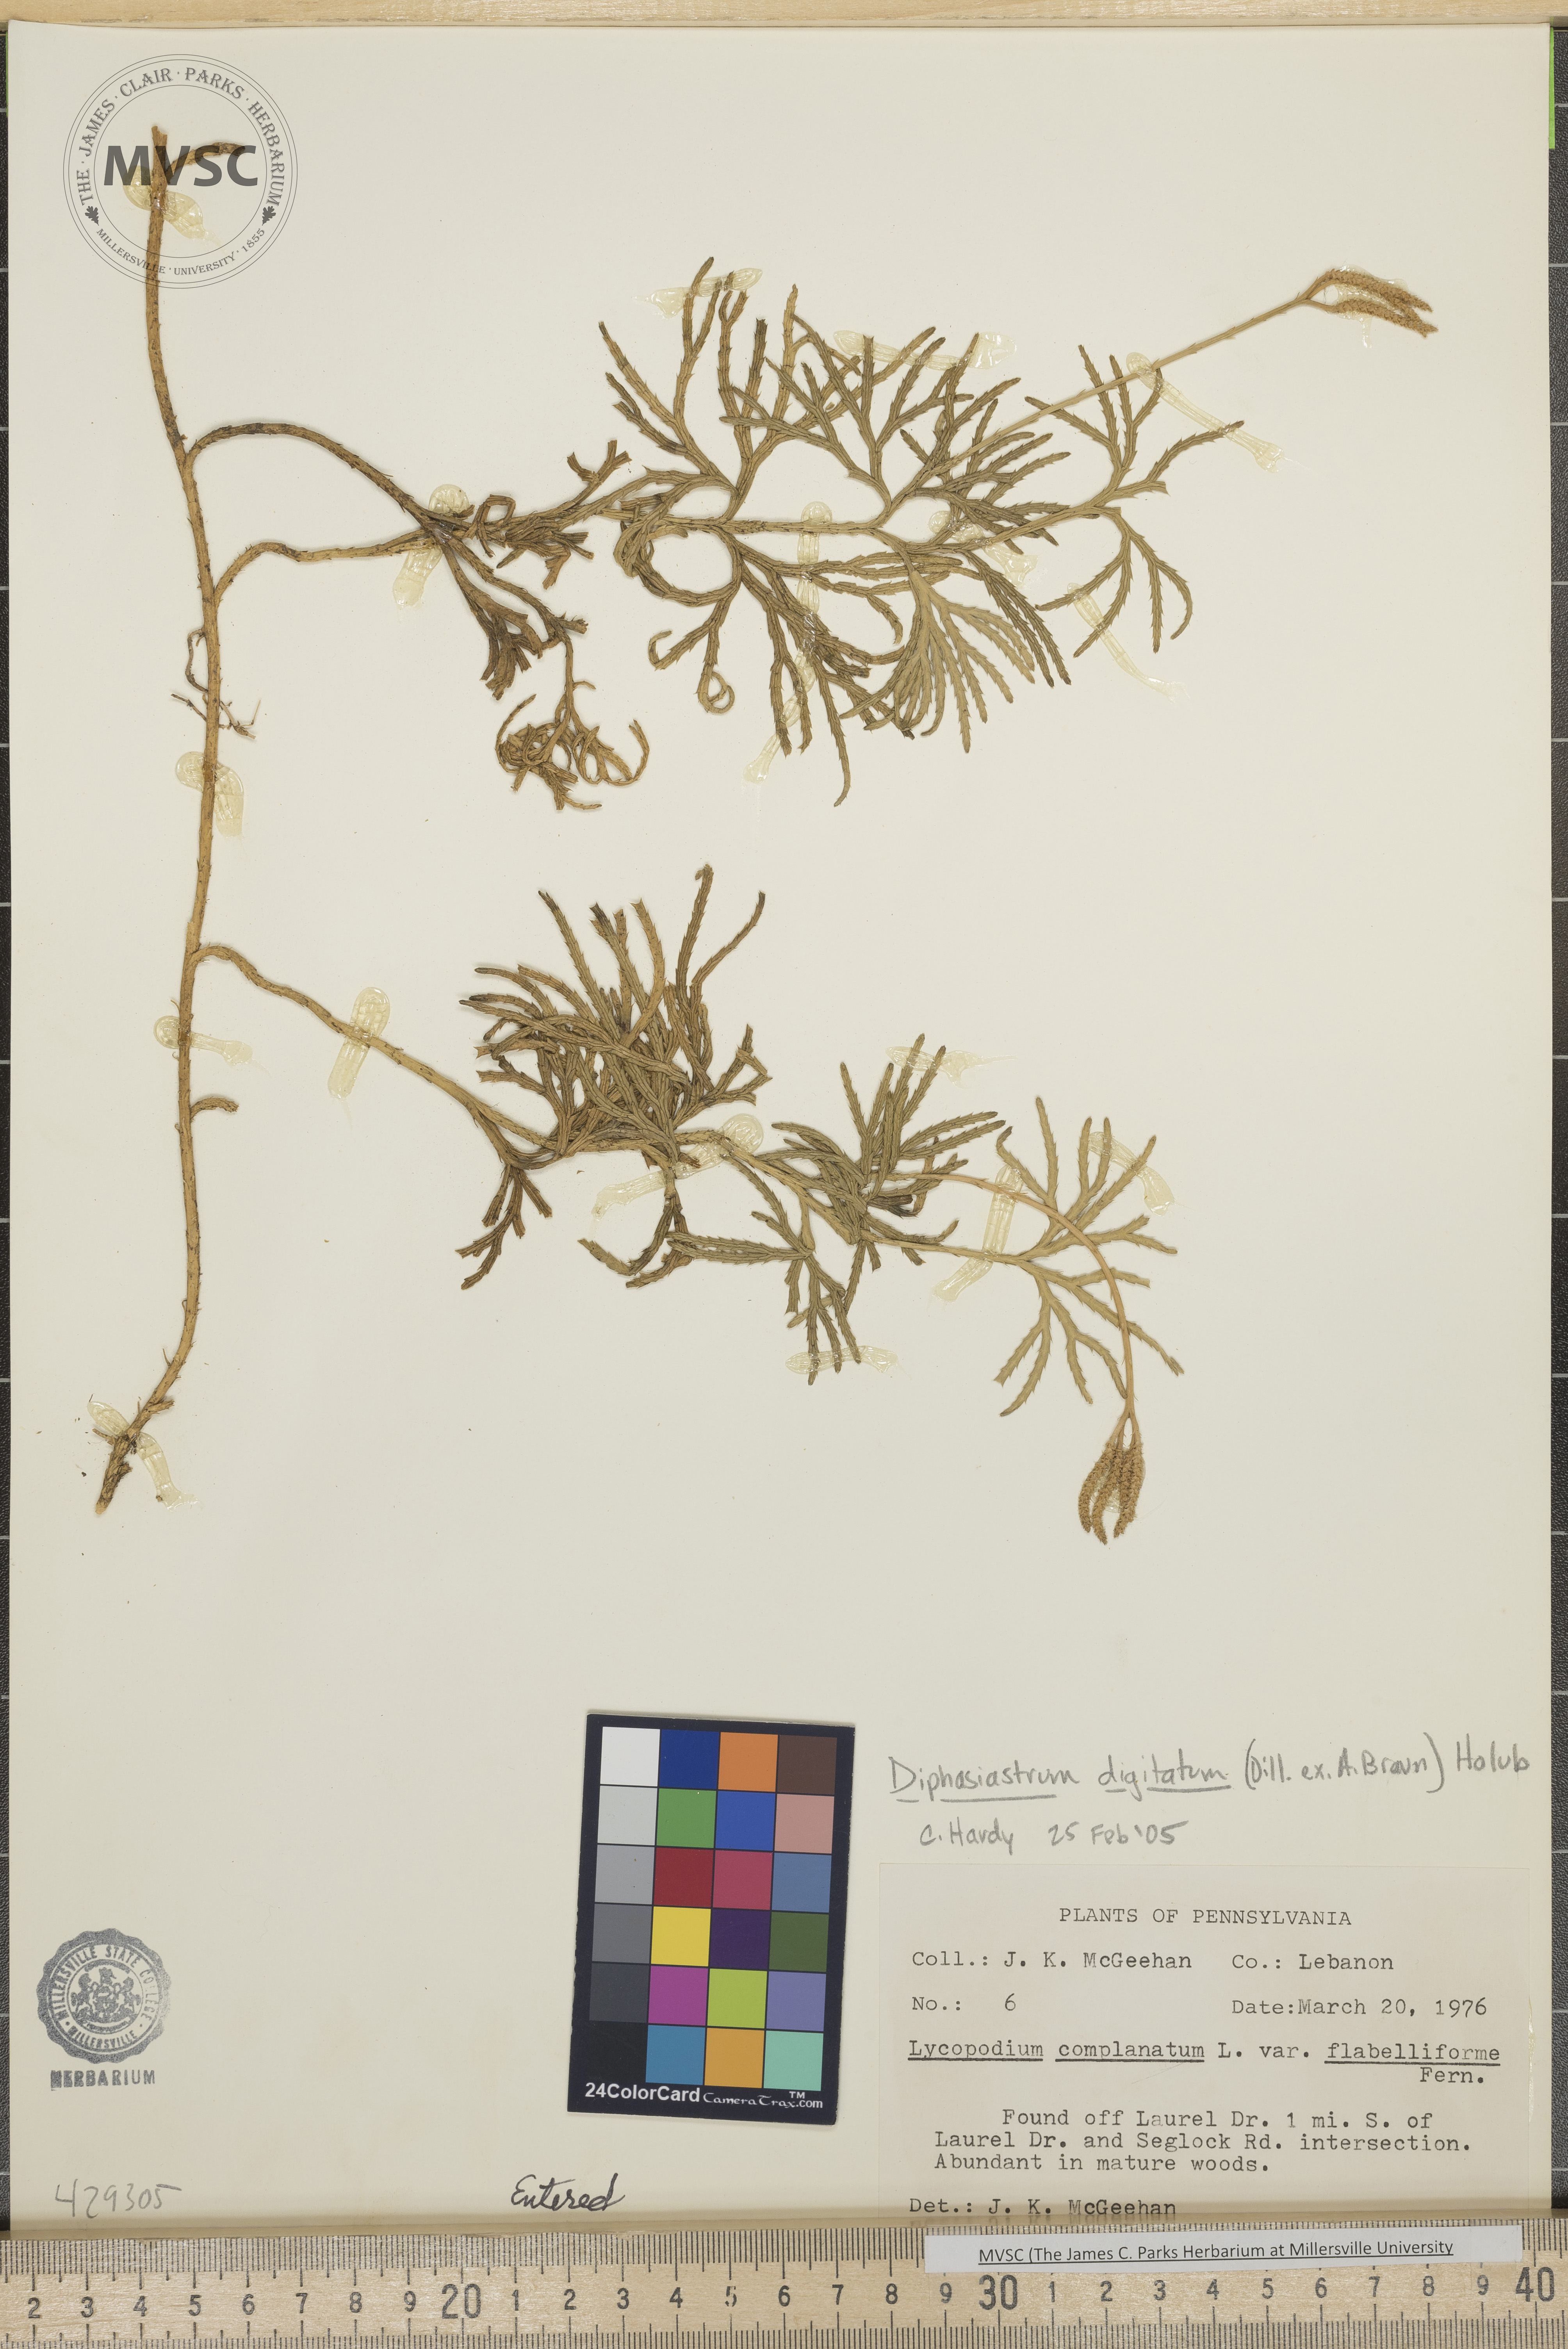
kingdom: Plantae
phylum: Tracheophyta
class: Lycopodiopsida
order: Lycopodiales
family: Lycopodiaceae
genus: Diphasiastrum
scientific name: Diphasiastrum digitatum
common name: Southern running-pine
